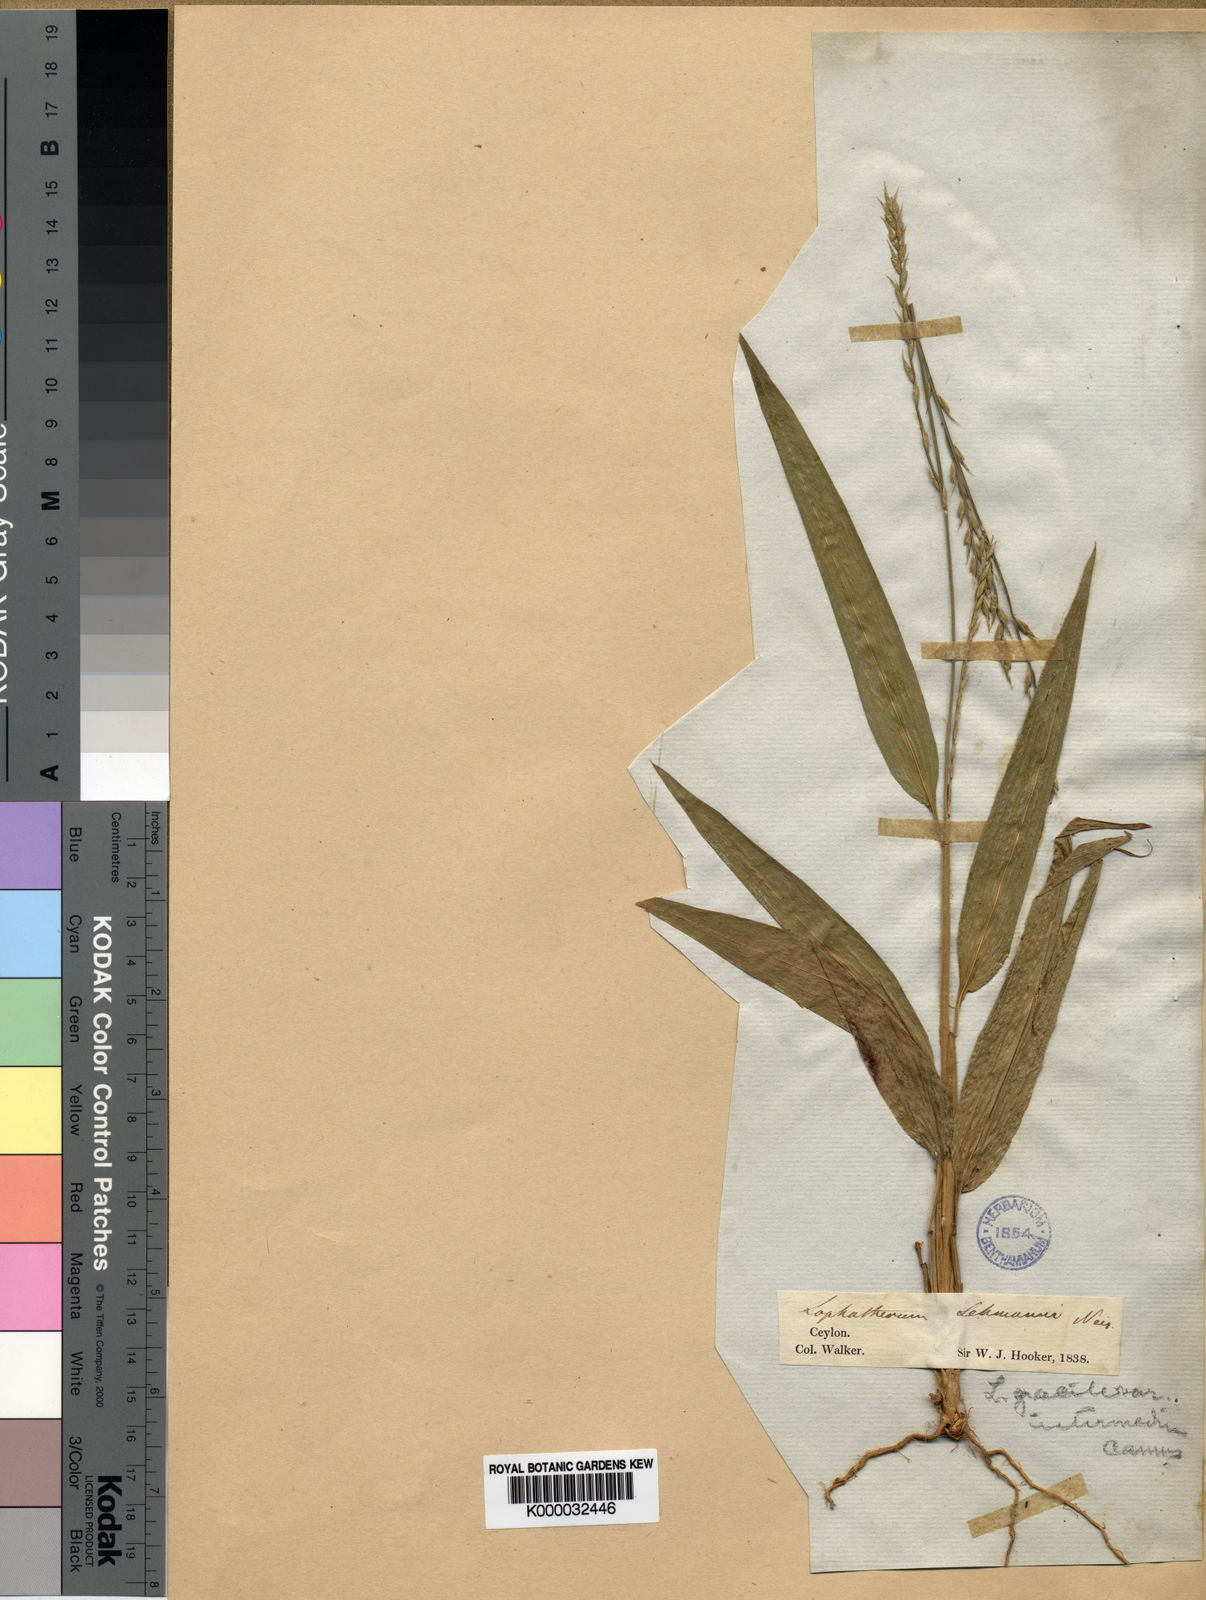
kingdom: Plantae
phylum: Tracheophyta
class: Liliopsida
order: Poales
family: Poaceae
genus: Lophatherum
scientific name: Lophatherum gracile
